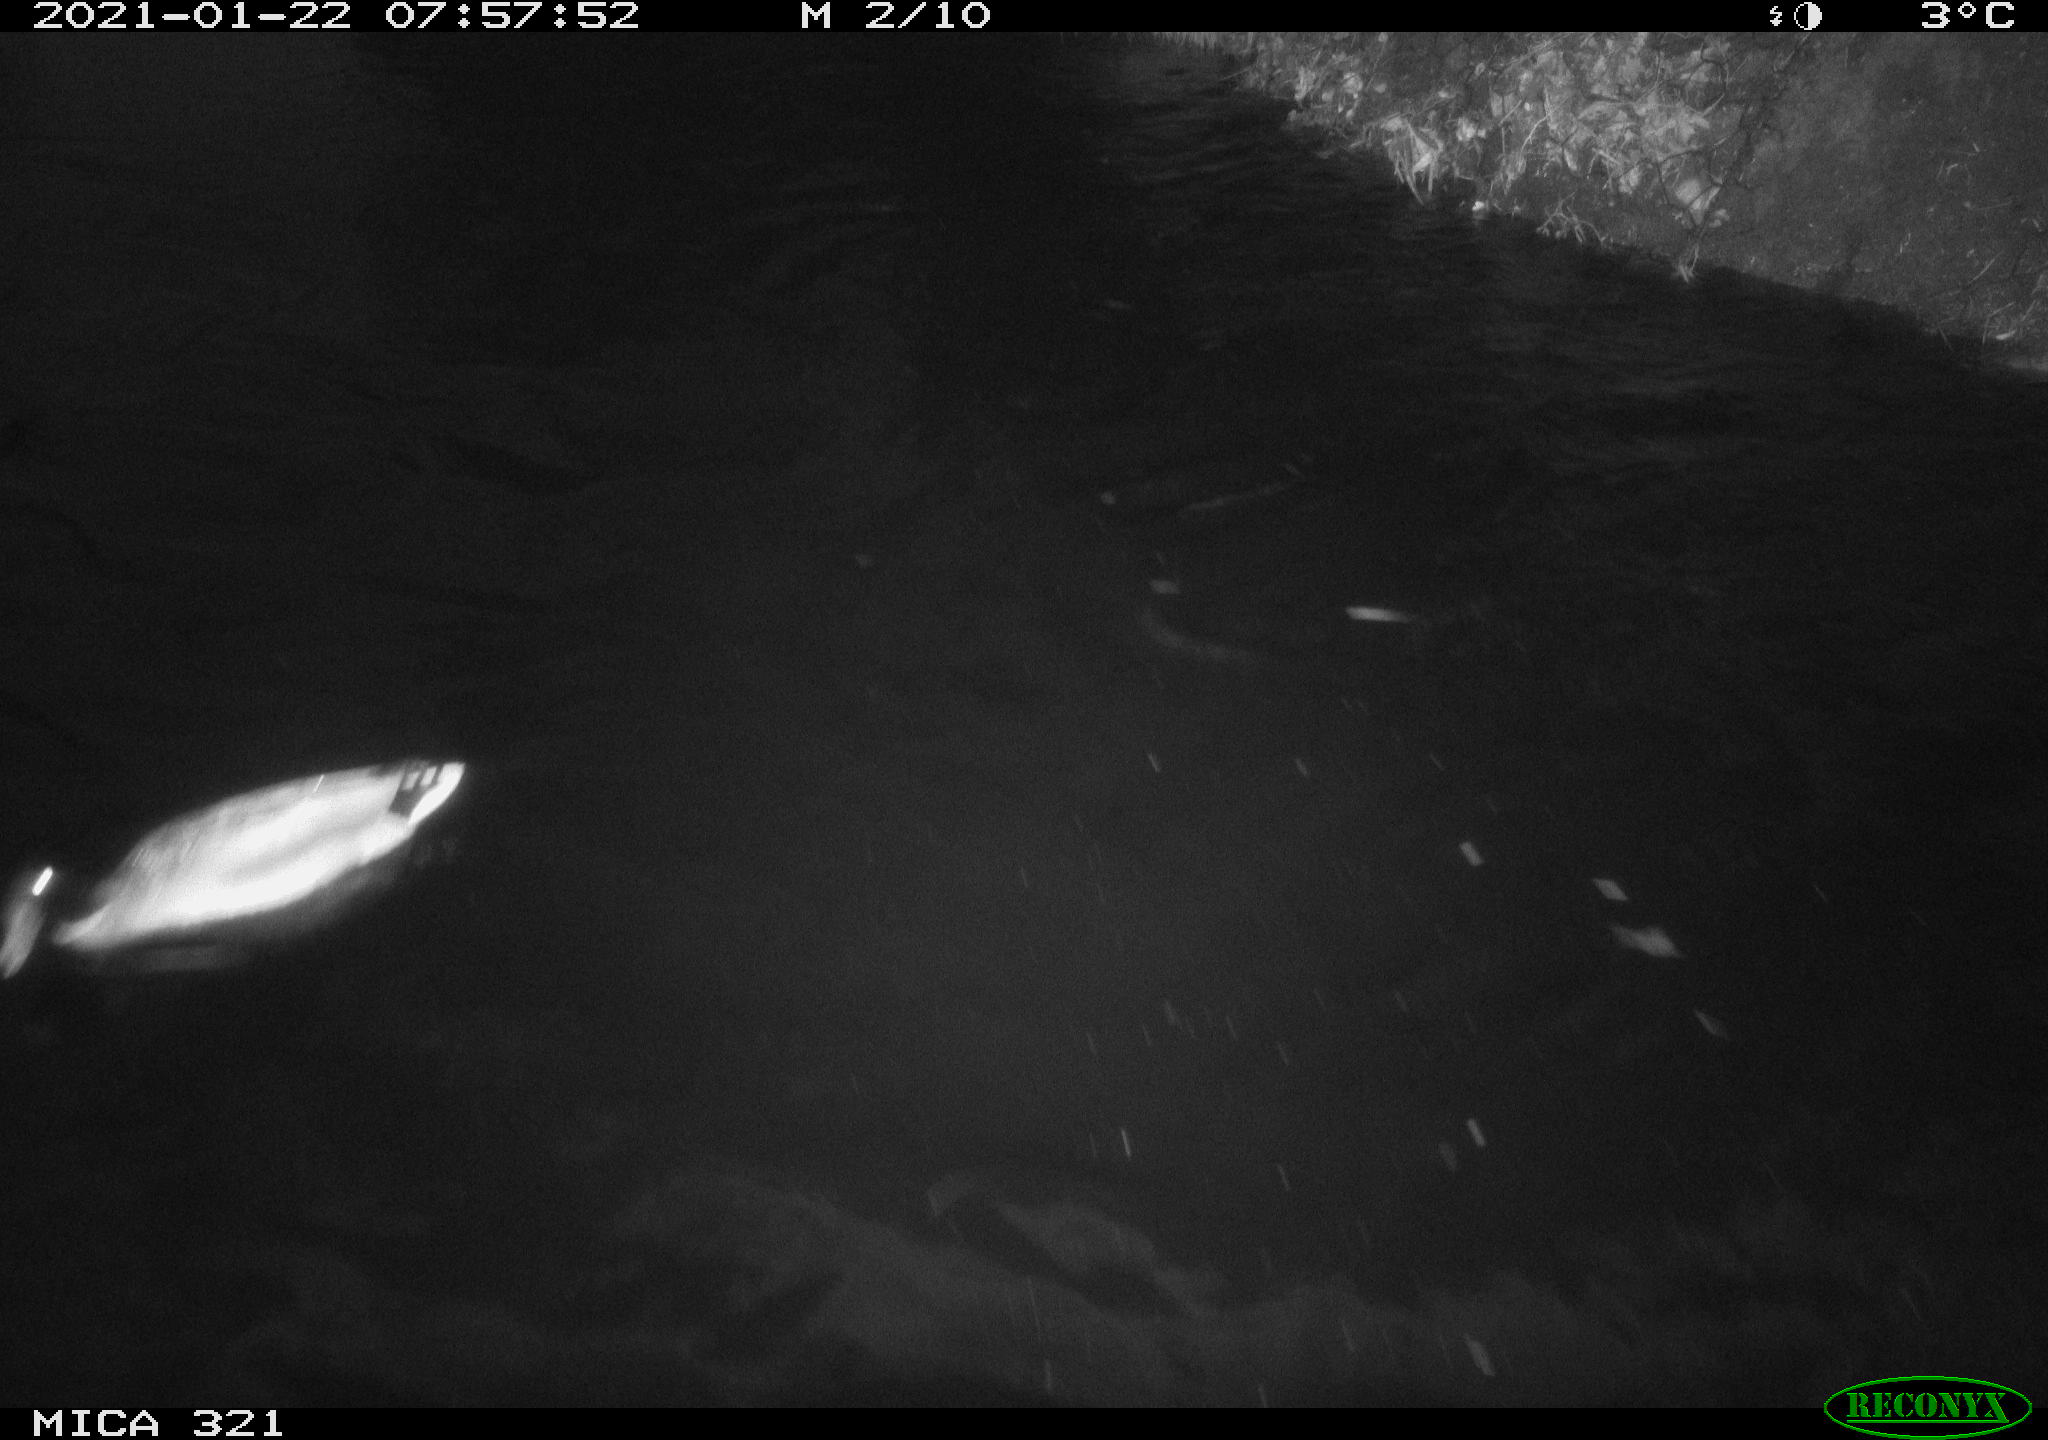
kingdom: Animalia
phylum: Chordata
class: Aves
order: Anseriformes
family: Anatidae
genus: Anas
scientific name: Anas platyrhynchos
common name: Mallard
